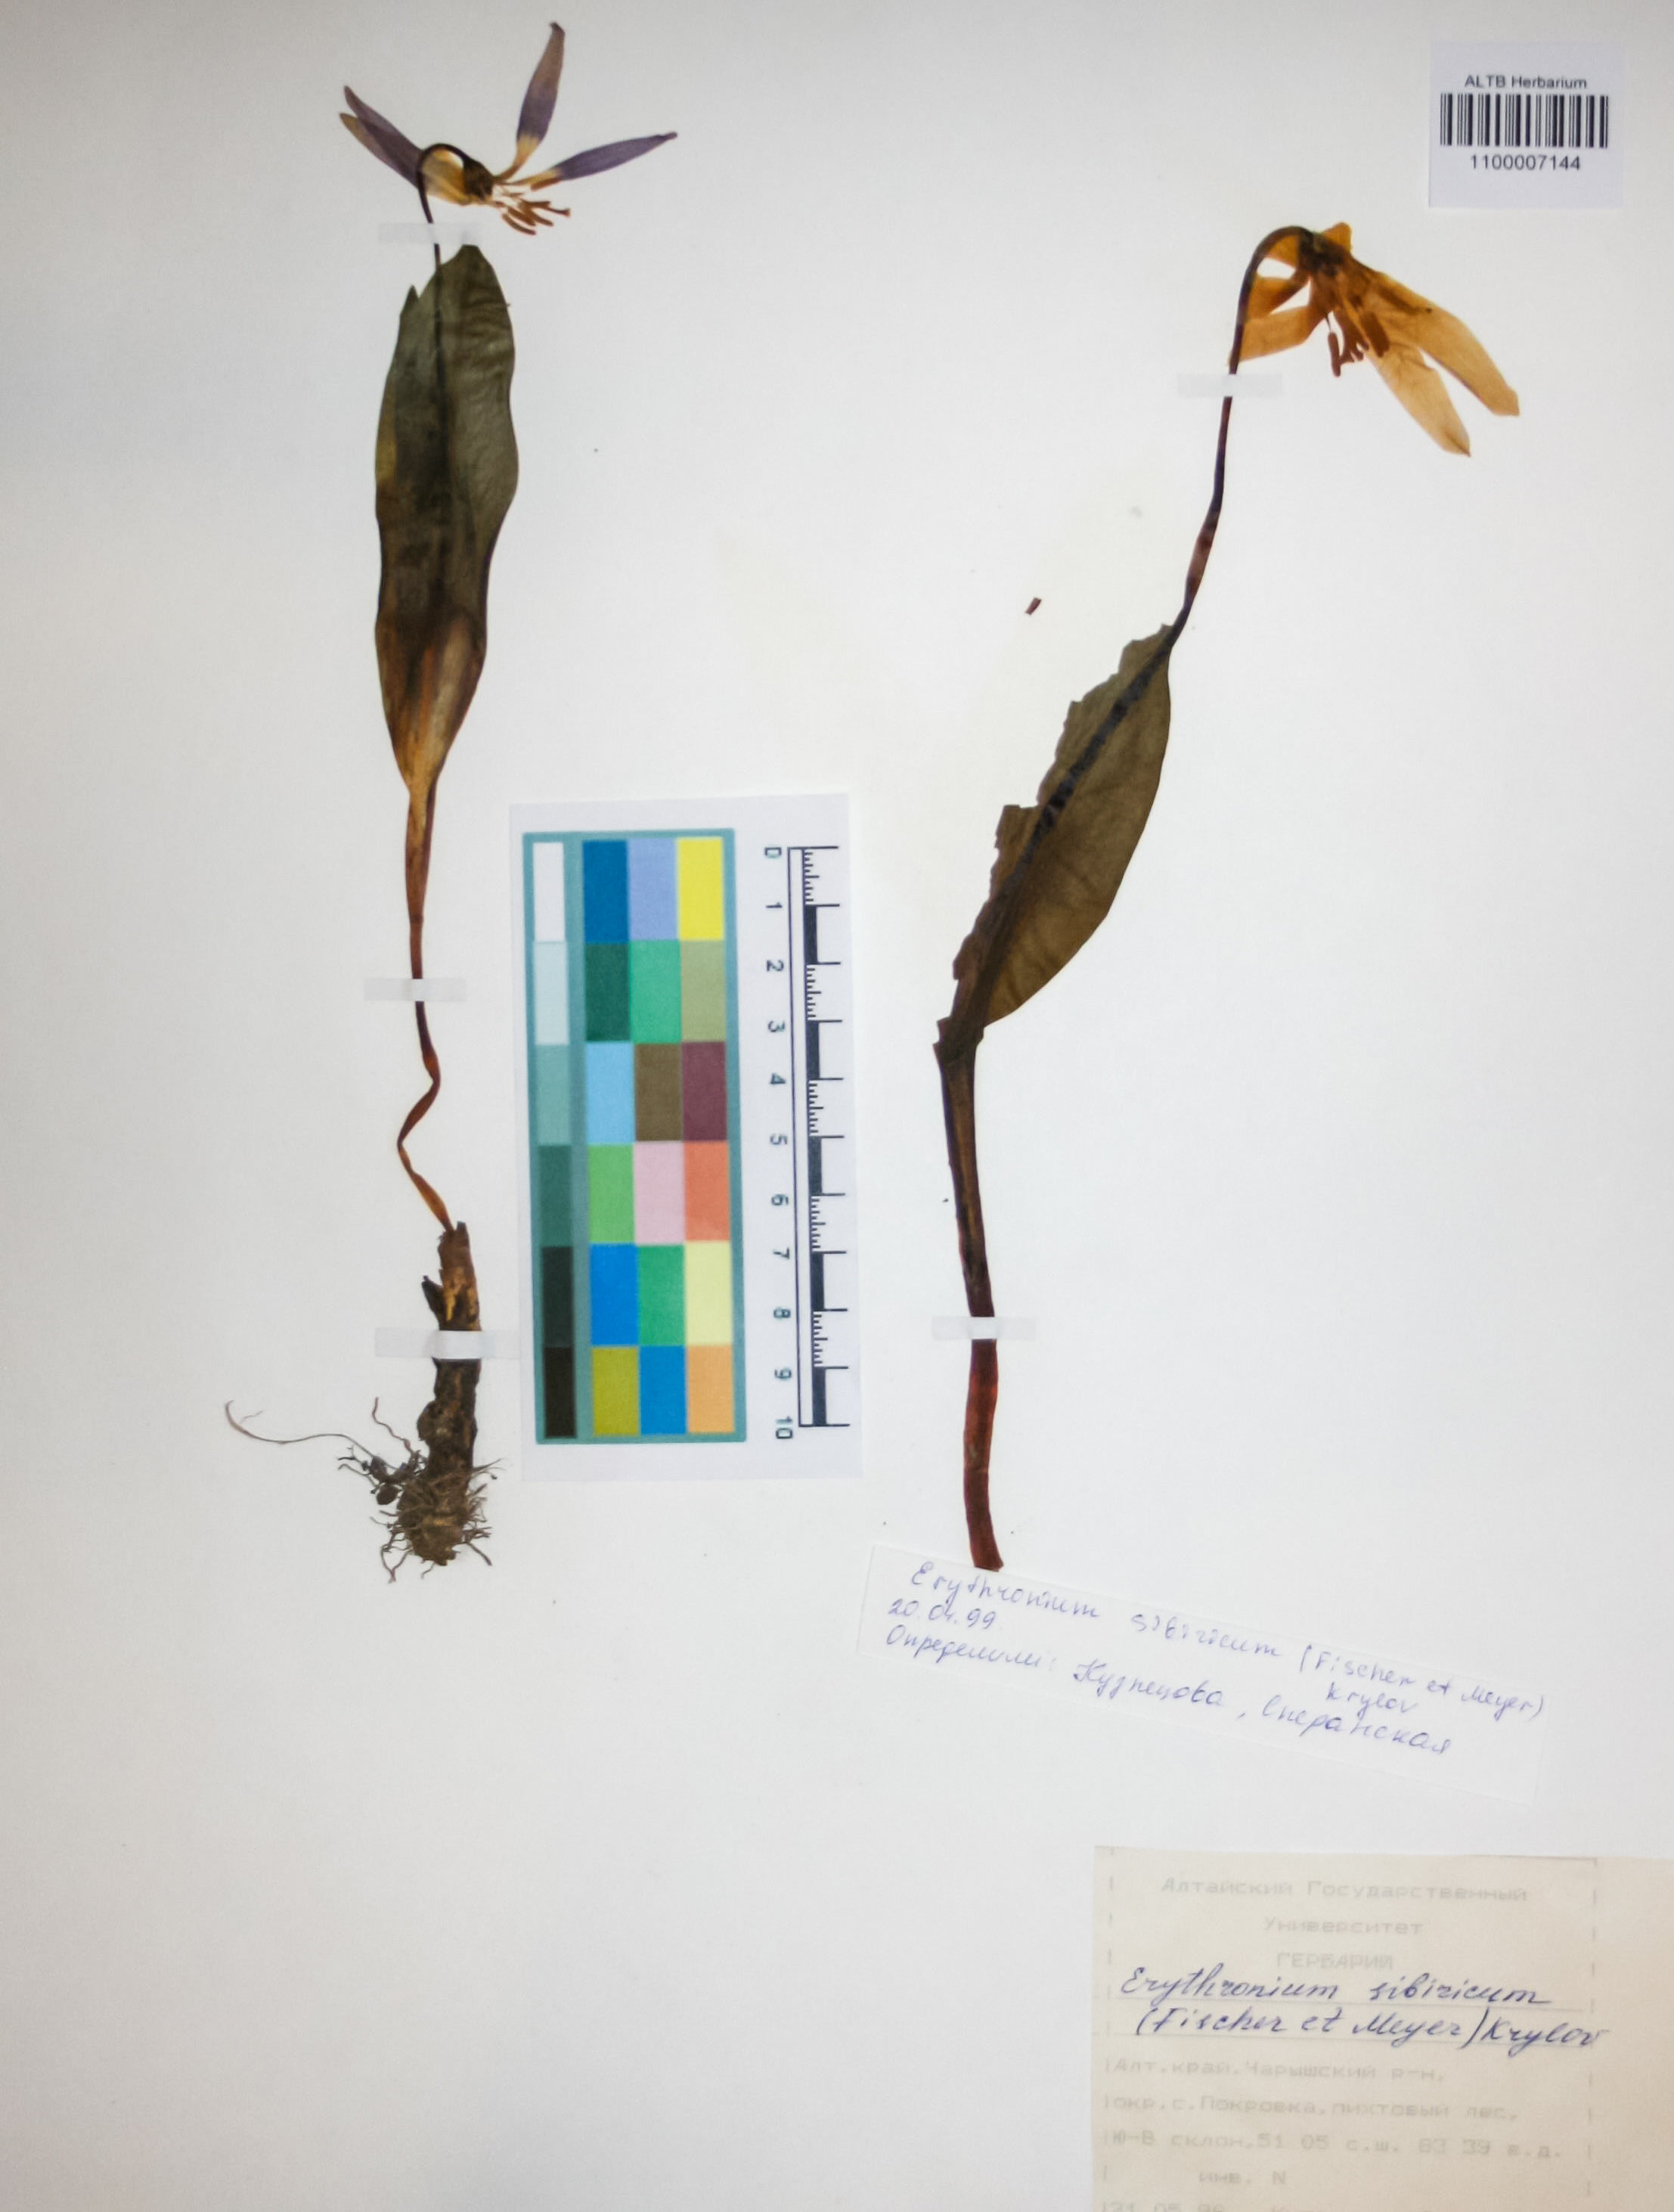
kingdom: Plantae
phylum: Tracheophyta
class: Liliopsida
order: Liliales
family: Liliaceae
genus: Erythronium
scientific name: Erythronium sibiricum
